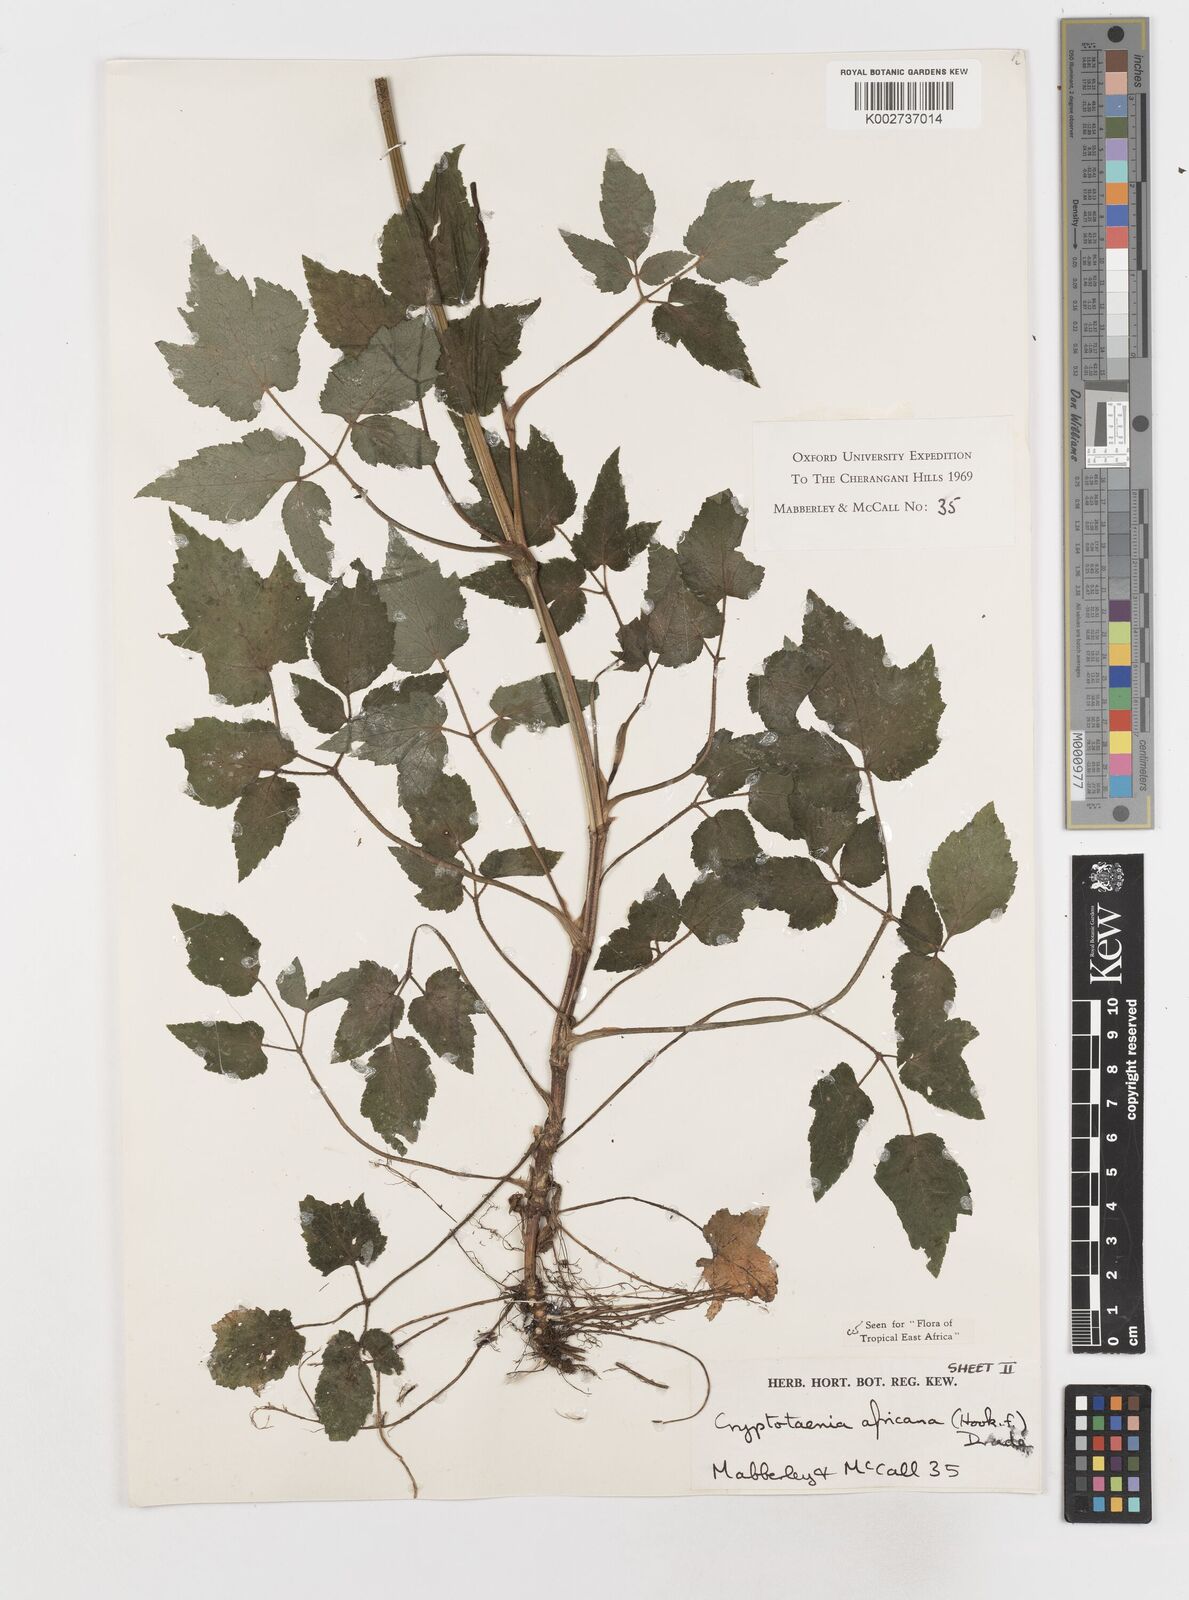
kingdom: Plantae
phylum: Tracheophyta
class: Magnoliopsida
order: Apiales
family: Apiaceae
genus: Cryptotaenia
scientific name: Cryptotaenia africana
